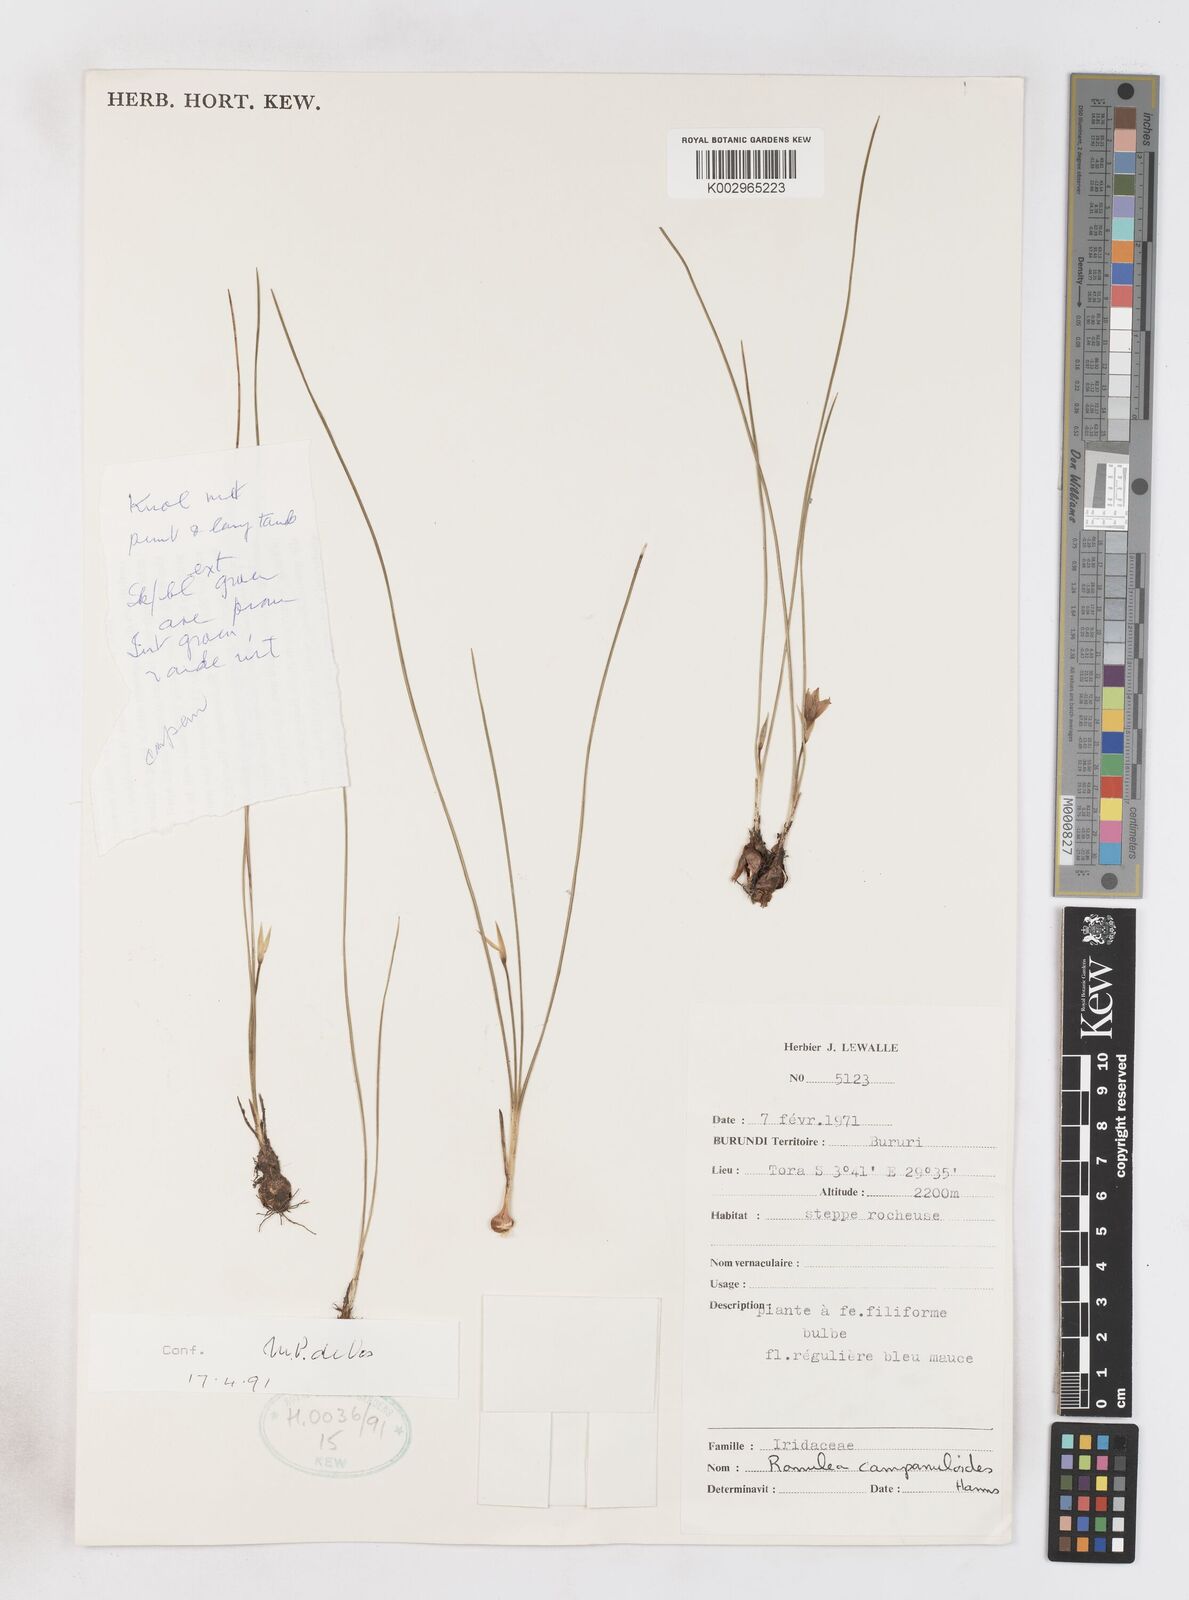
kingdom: Plantae
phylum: Tracheophyta
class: Liliopsida
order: Asparagales
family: Iridaceae
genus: Romulea
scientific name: Romulea camerooniana
